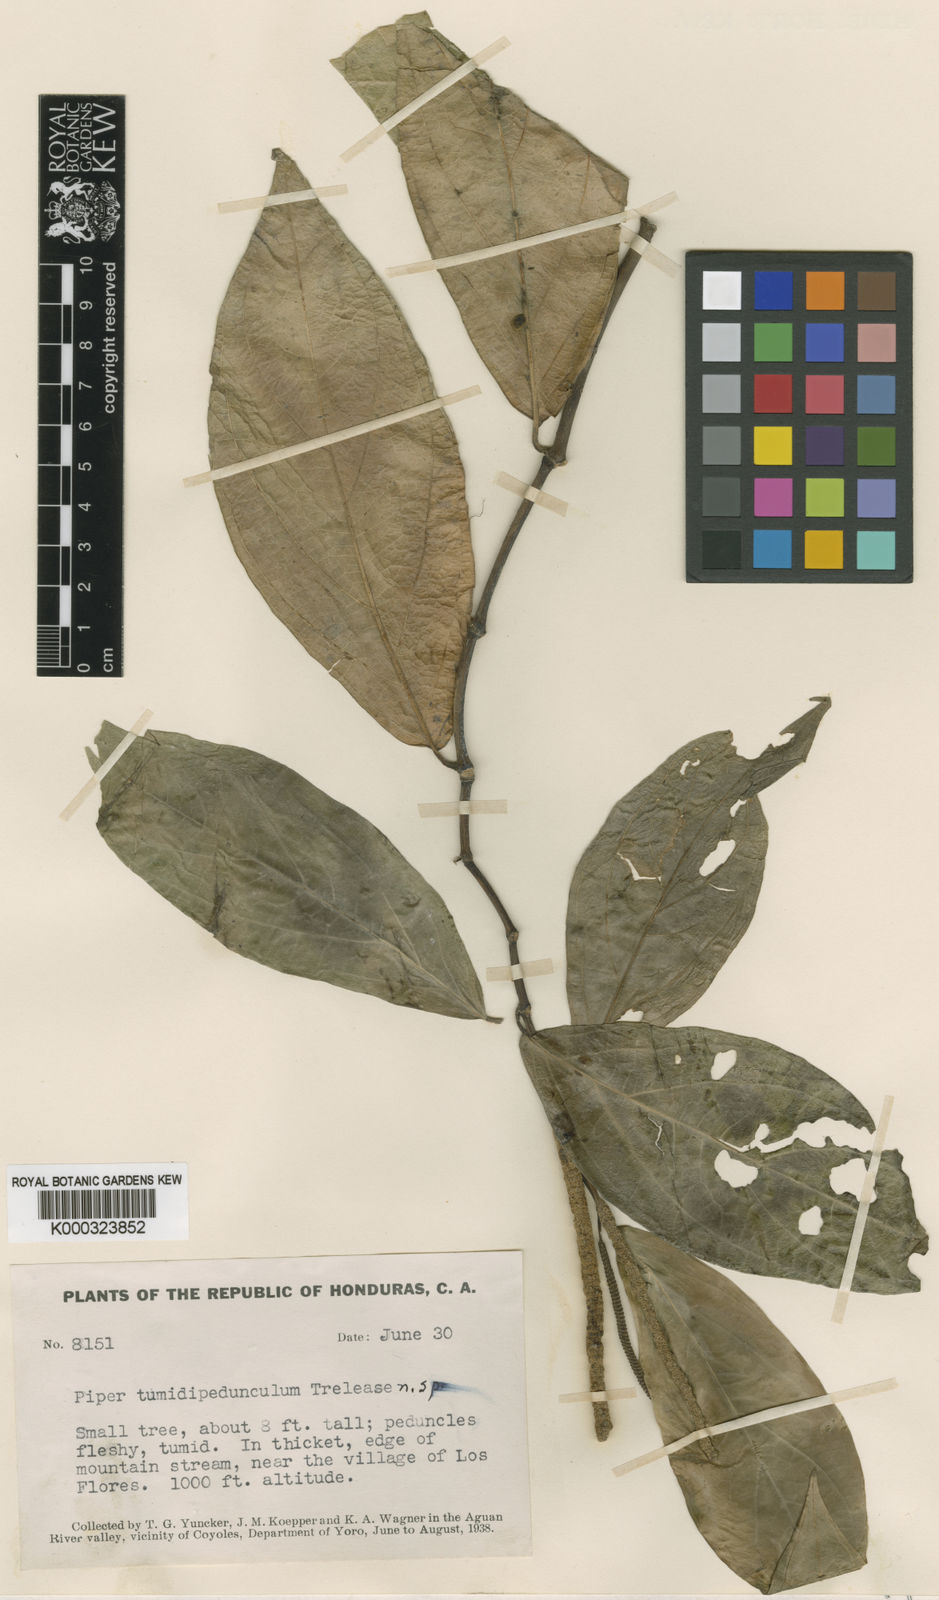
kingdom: Plantae
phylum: Tracheophyta
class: Magnoliopsida
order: Piperales
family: Piperaceae
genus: Piper
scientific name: Piper
